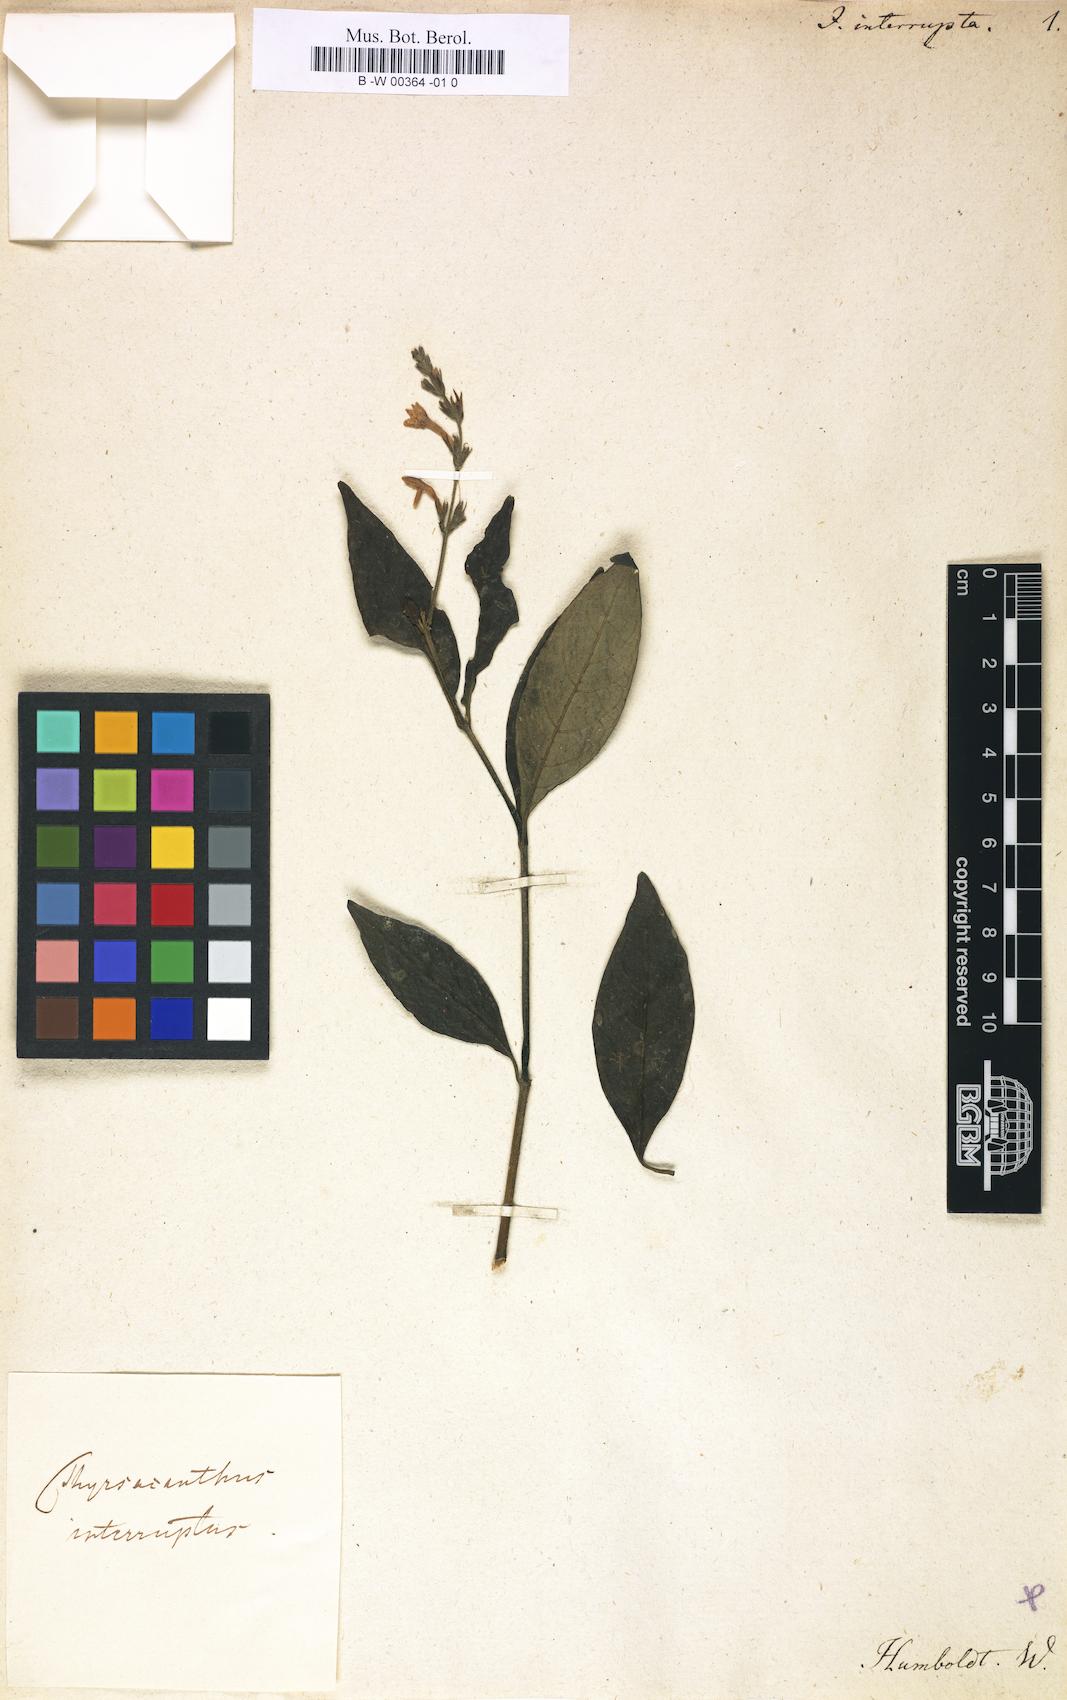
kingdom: Plantae
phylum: Tracheophyta
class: Magnoliopsida
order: Lamiales
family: Acanthaceae
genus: Pseuderanthemum
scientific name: Pseuderanthemum interruptum
